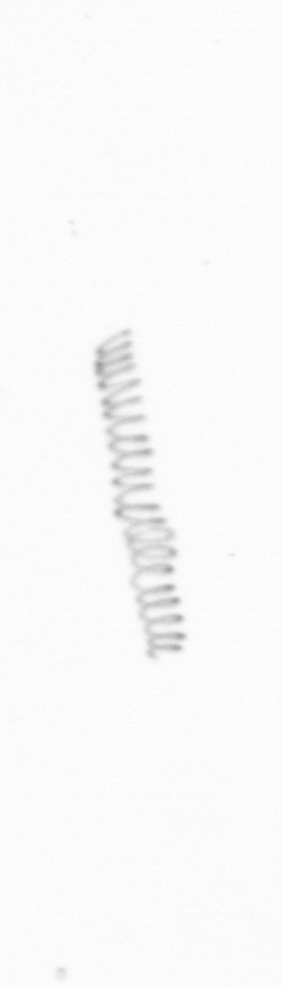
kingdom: Chromista
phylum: Ochrophyta
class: Bacillariophyceae
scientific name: Bacillariophyceae
